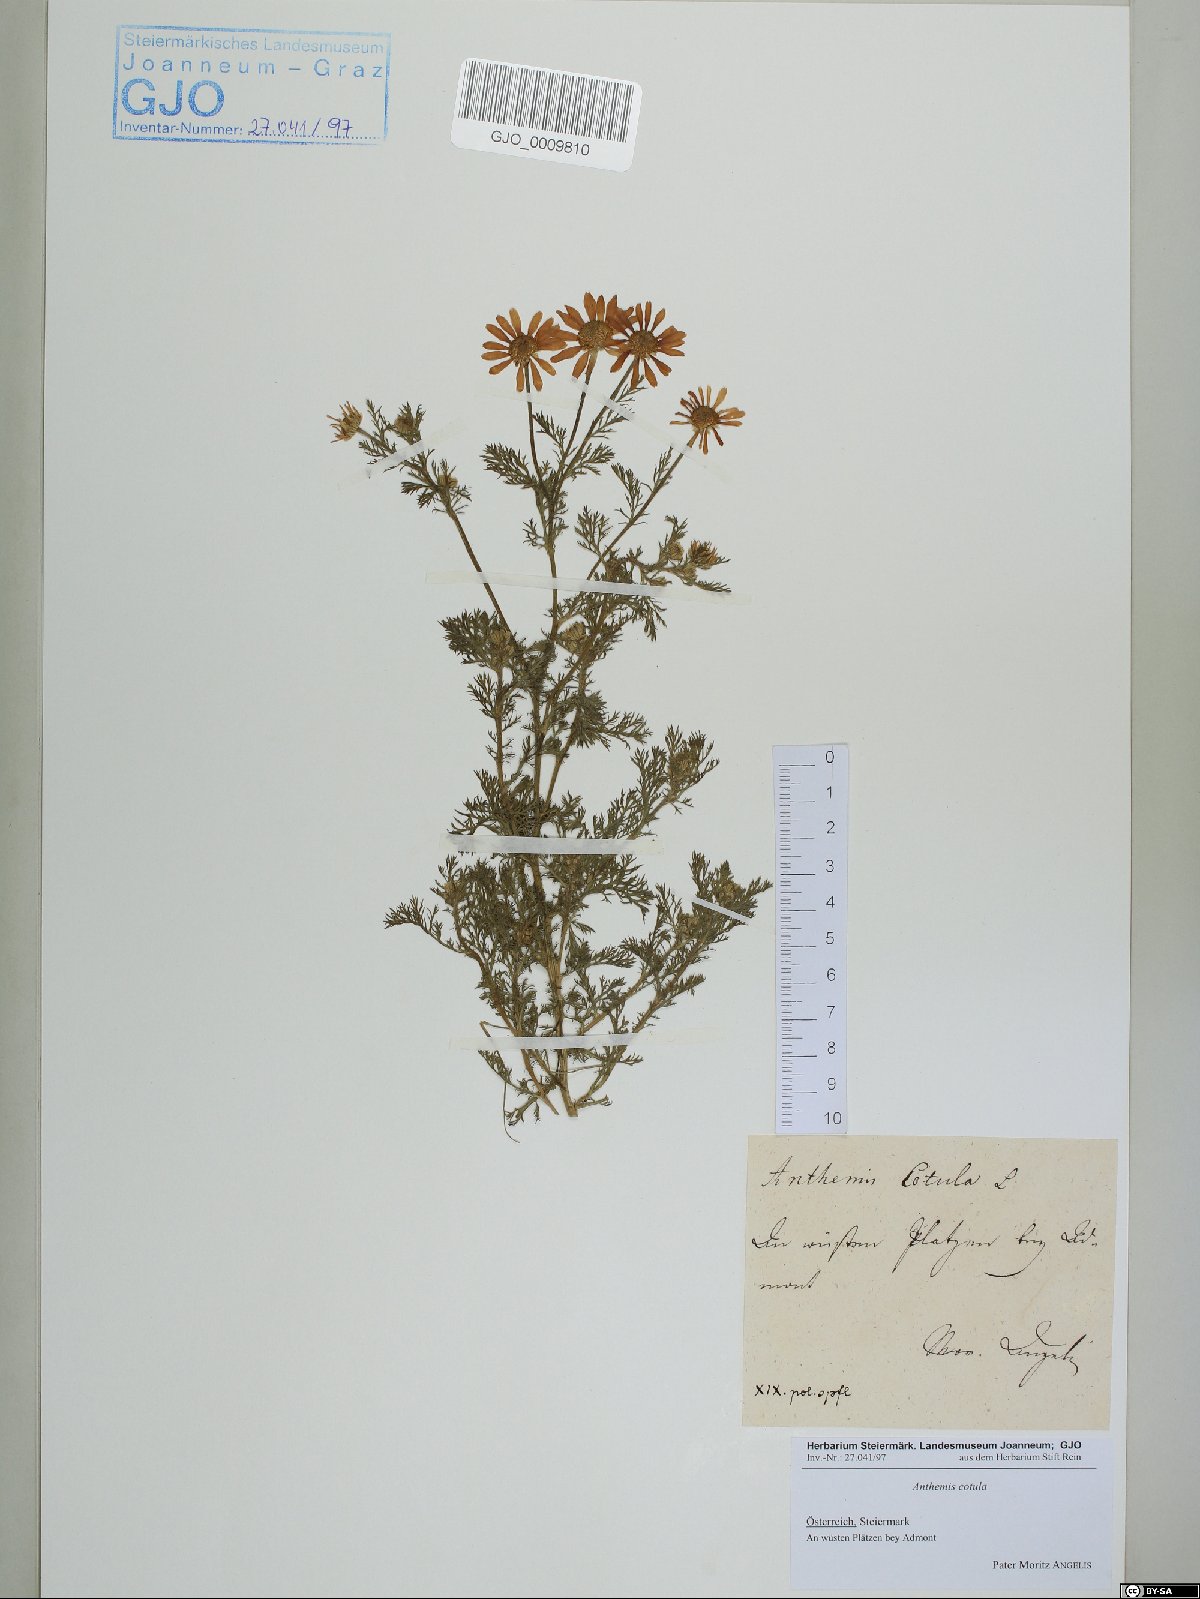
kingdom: Plantae
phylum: Tracheophyta
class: Magnoliopsida
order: Asterales
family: Asteraceae
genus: Anthemis
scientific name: Anthemis cotula
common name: Stinking chamomile
